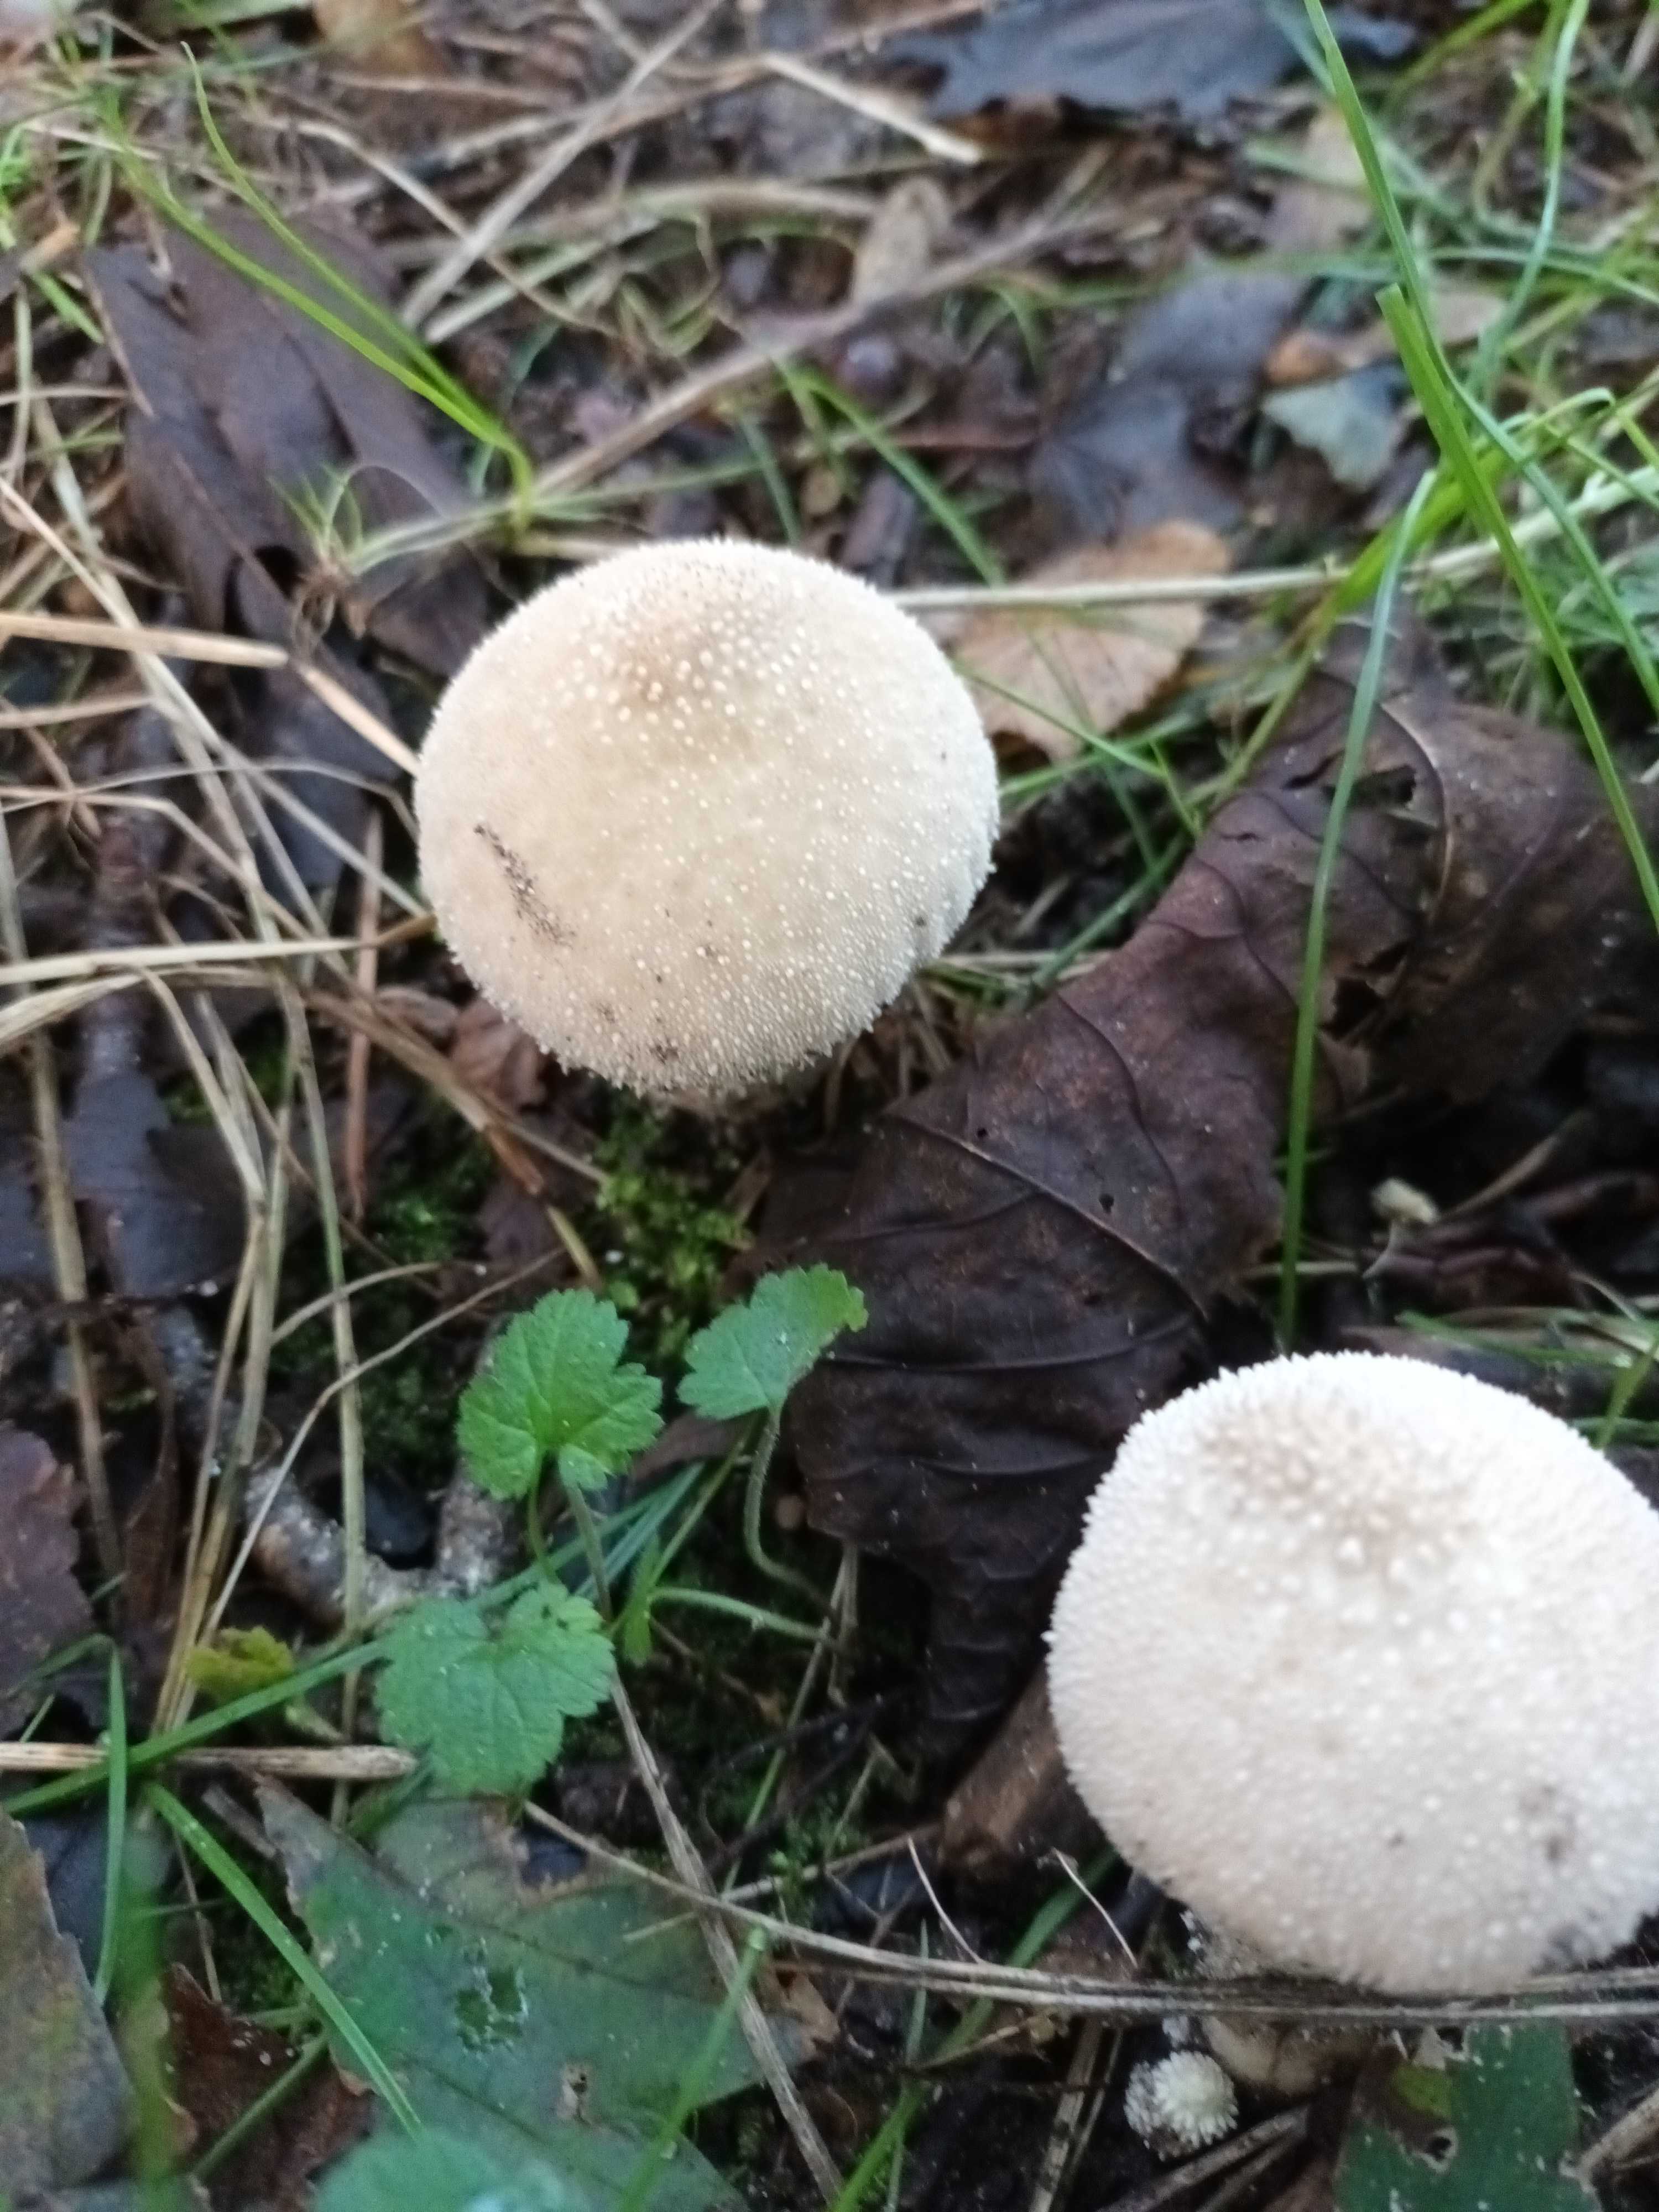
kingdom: Fungi
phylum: Basidiomycota
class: Agaricomycetes
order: Agaricales
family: Lycoperdaceae
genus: Lycoperdon
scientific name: Lycoperdon perlatum
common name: krystal-støvbold
